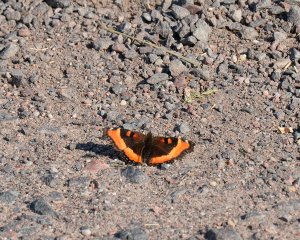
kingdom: Animalia
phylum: Arthropoda
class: Insecta
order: Lepidoptera
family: Nymphalidae
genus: Aglais
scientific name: Aglais milberti
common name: Milbert's Tortoiseshell
